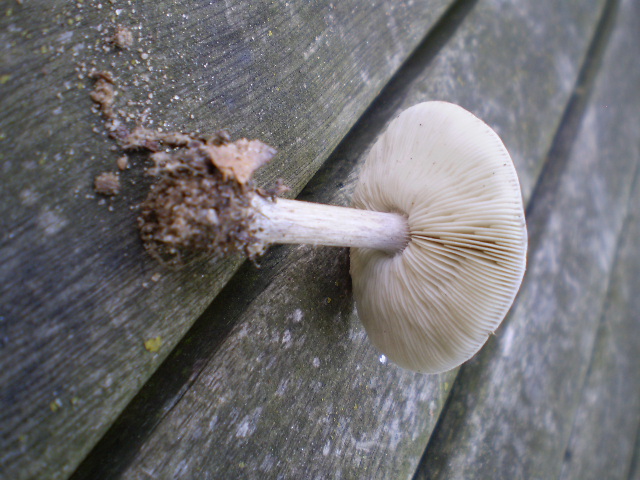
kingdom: Fungi
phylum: Basidiomycota
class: Agaricomycetes
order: Agaricales
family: Tricholomataceae
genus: Melanoleuca
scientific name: Melanoleuca polioleuca
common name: almindelig munkehat
